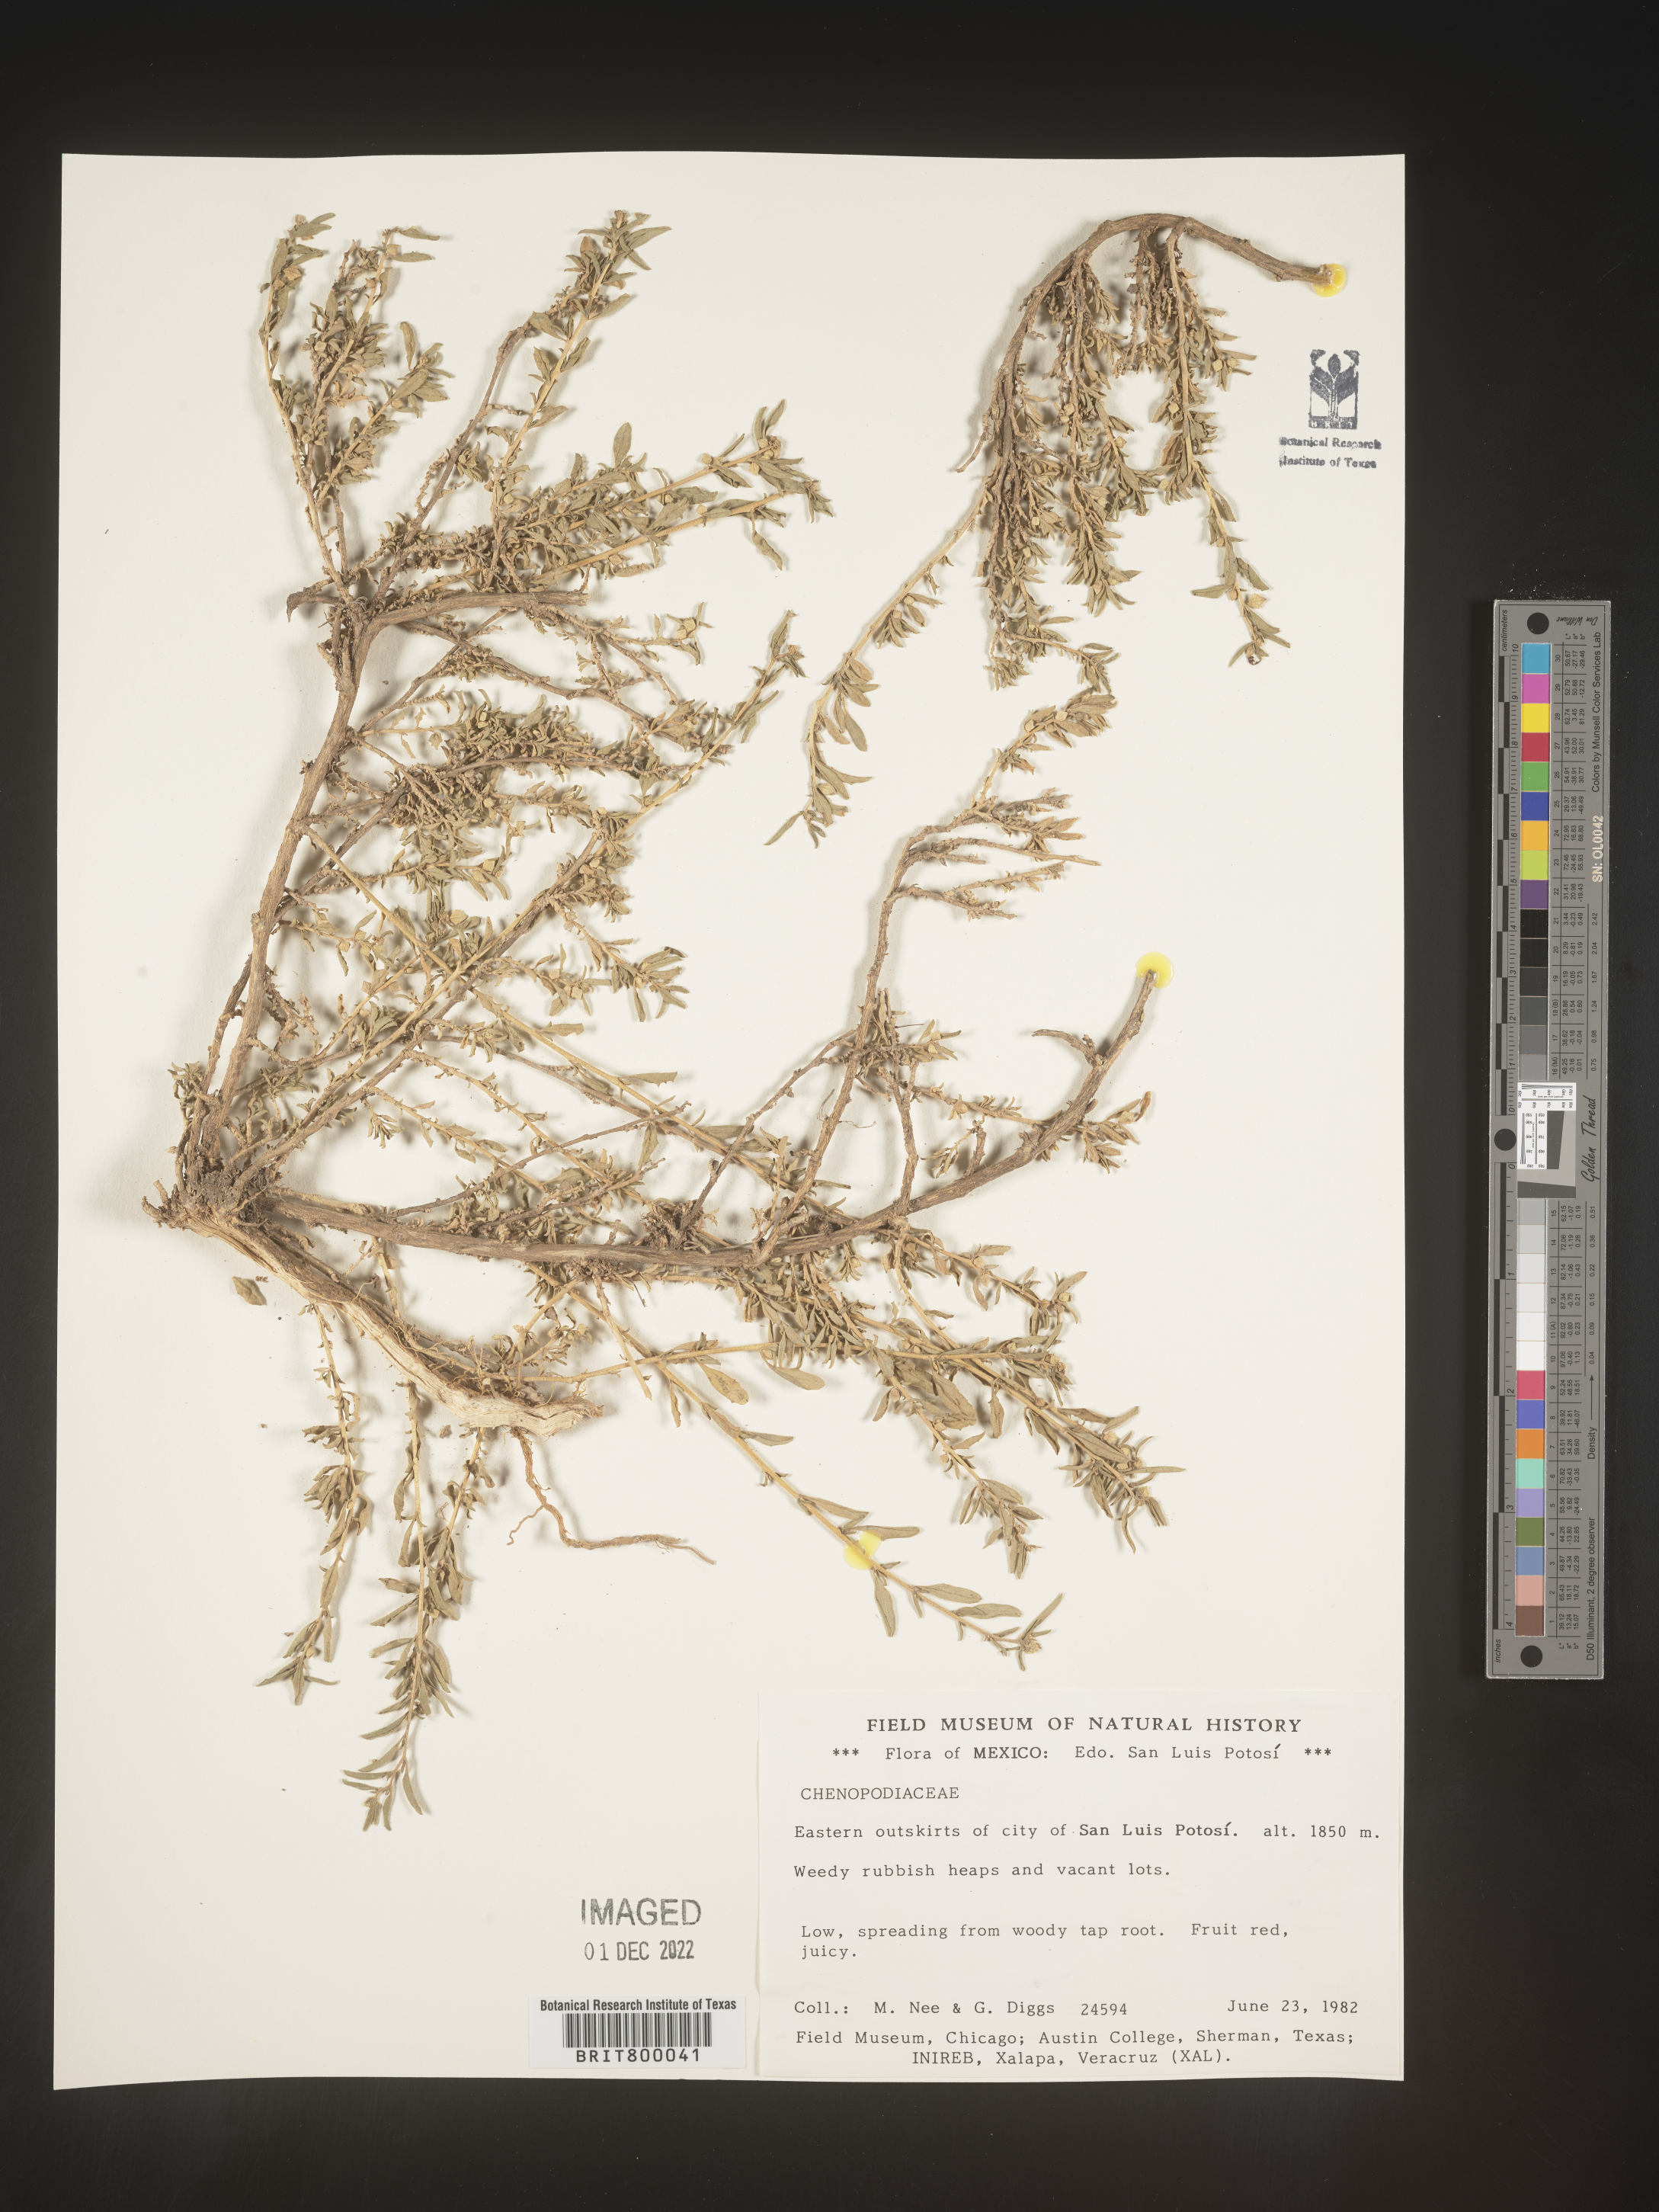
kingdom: Plantae
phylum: Tracheophyta
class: Magnoliopsida
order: Caryophyllales
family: Amaranthaceae
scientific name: Amaranthaceae
